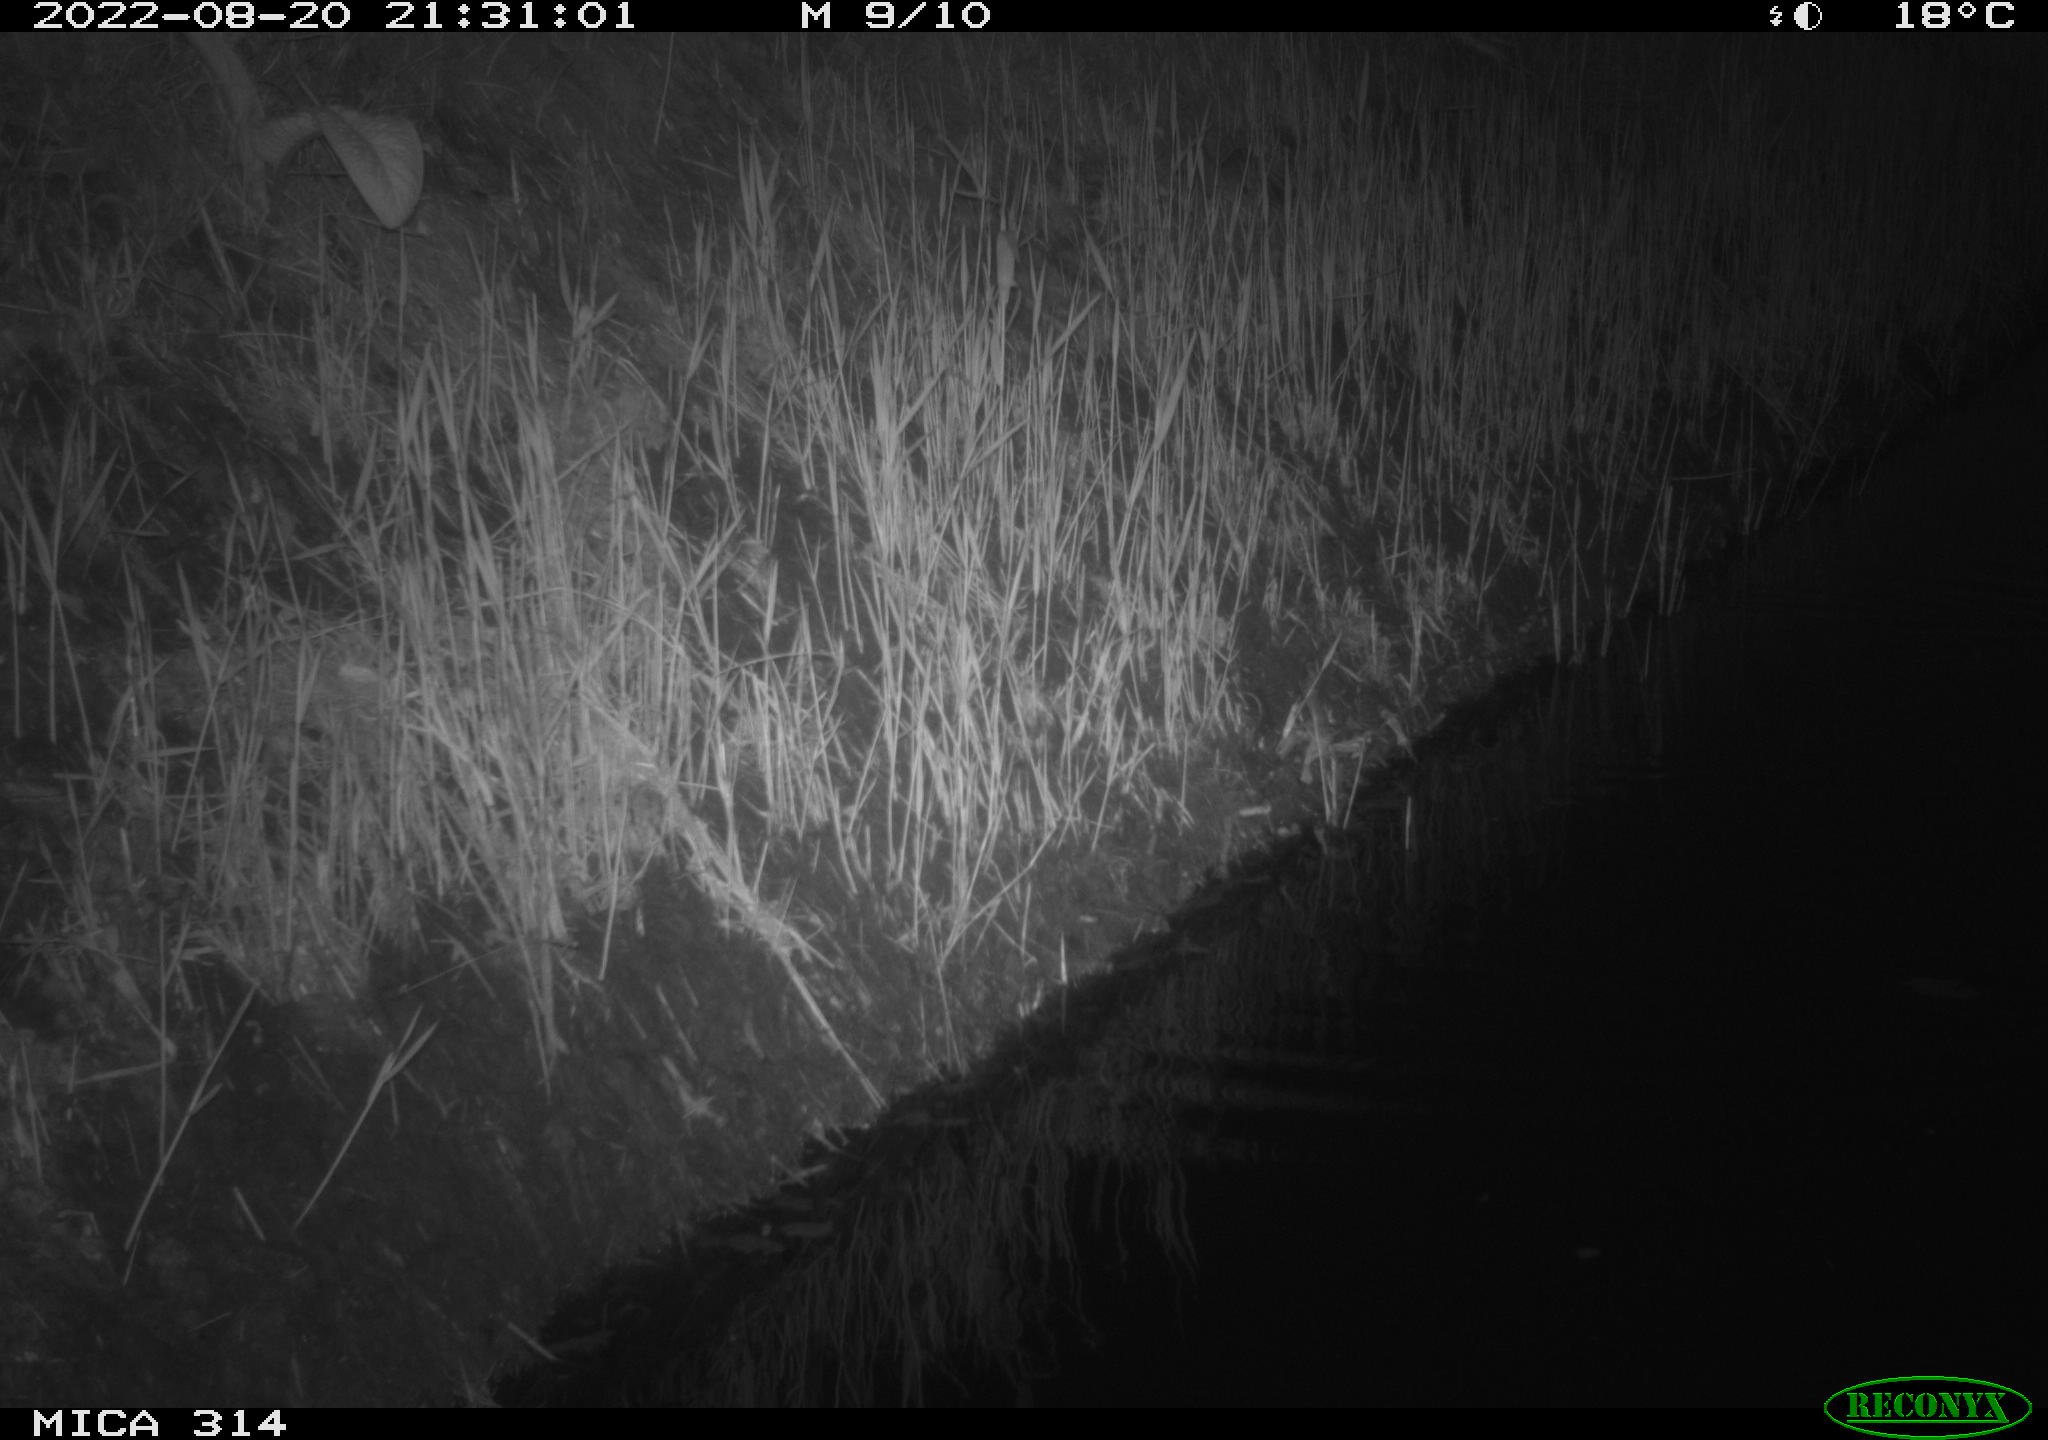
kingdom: Animalia
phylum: Chordata
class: Mammalia
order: Rodentia
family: Muridae
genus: Rattus
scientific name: Rattus norvegicus
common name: Brown rat
